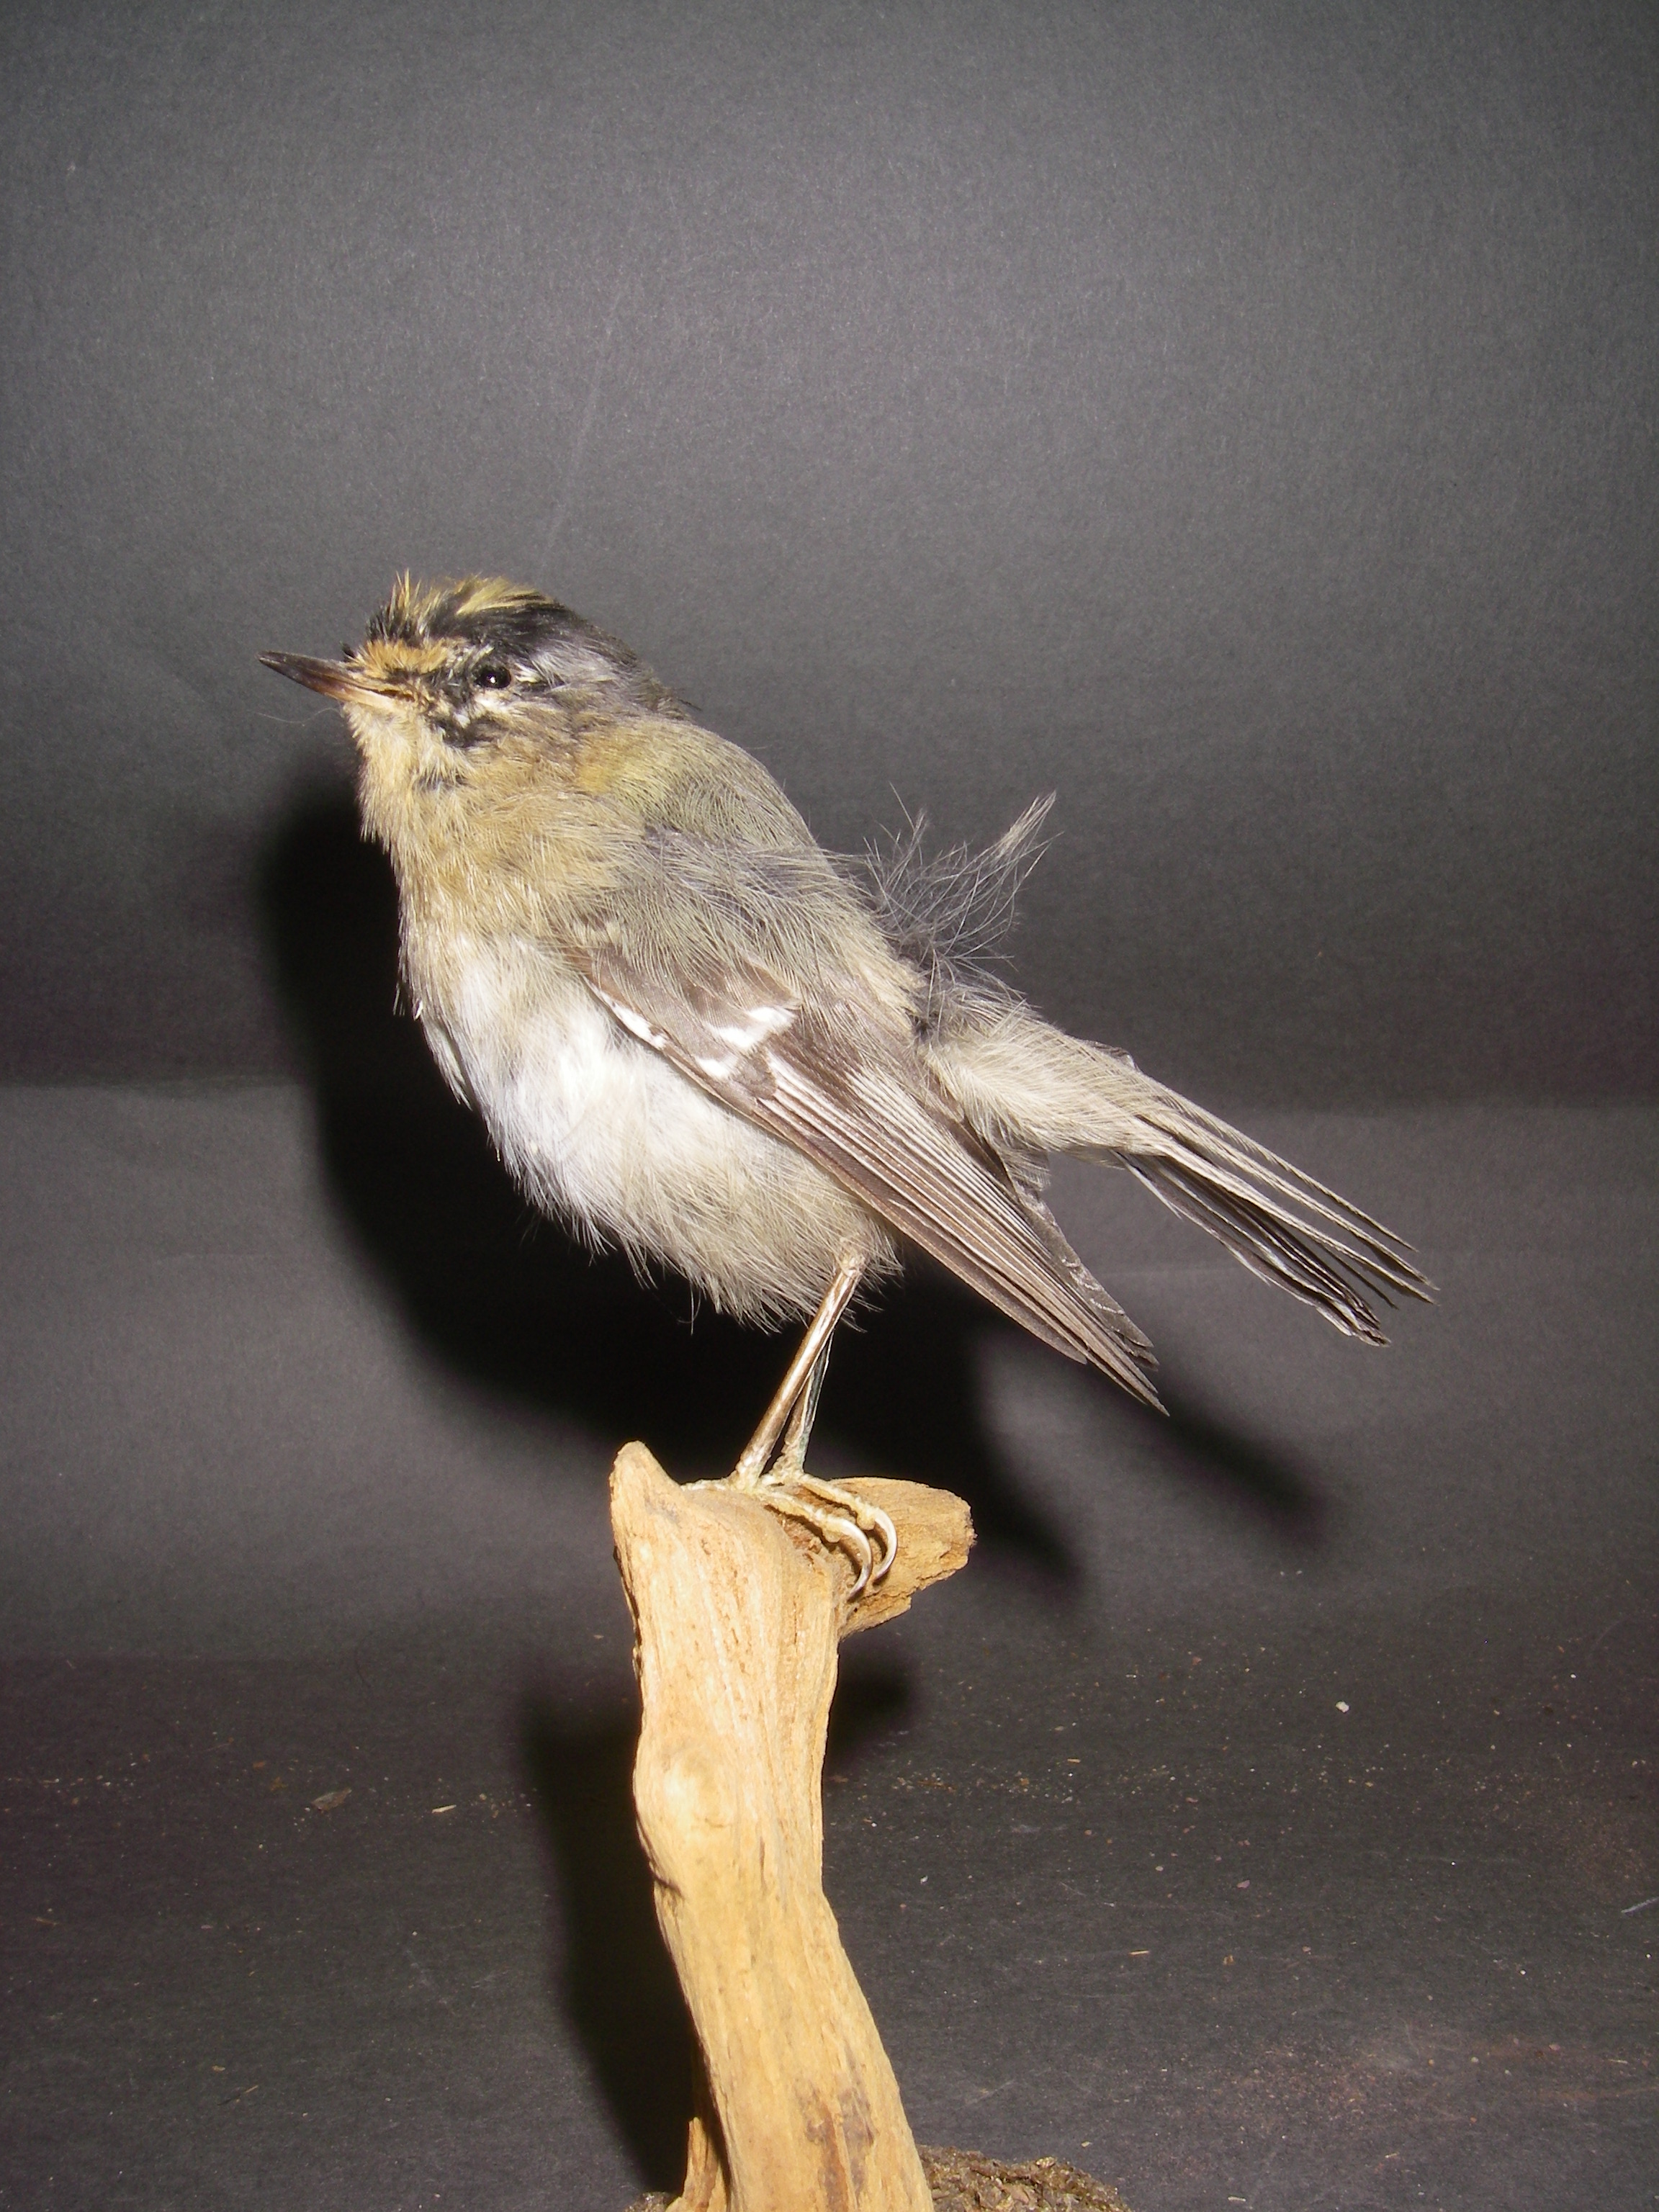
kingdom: Animalia
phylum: Chordata
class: Aves
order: Passeriformes
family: Regulidae
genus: Regulus
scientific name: Regulus ignicapilla
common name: Firecrest
